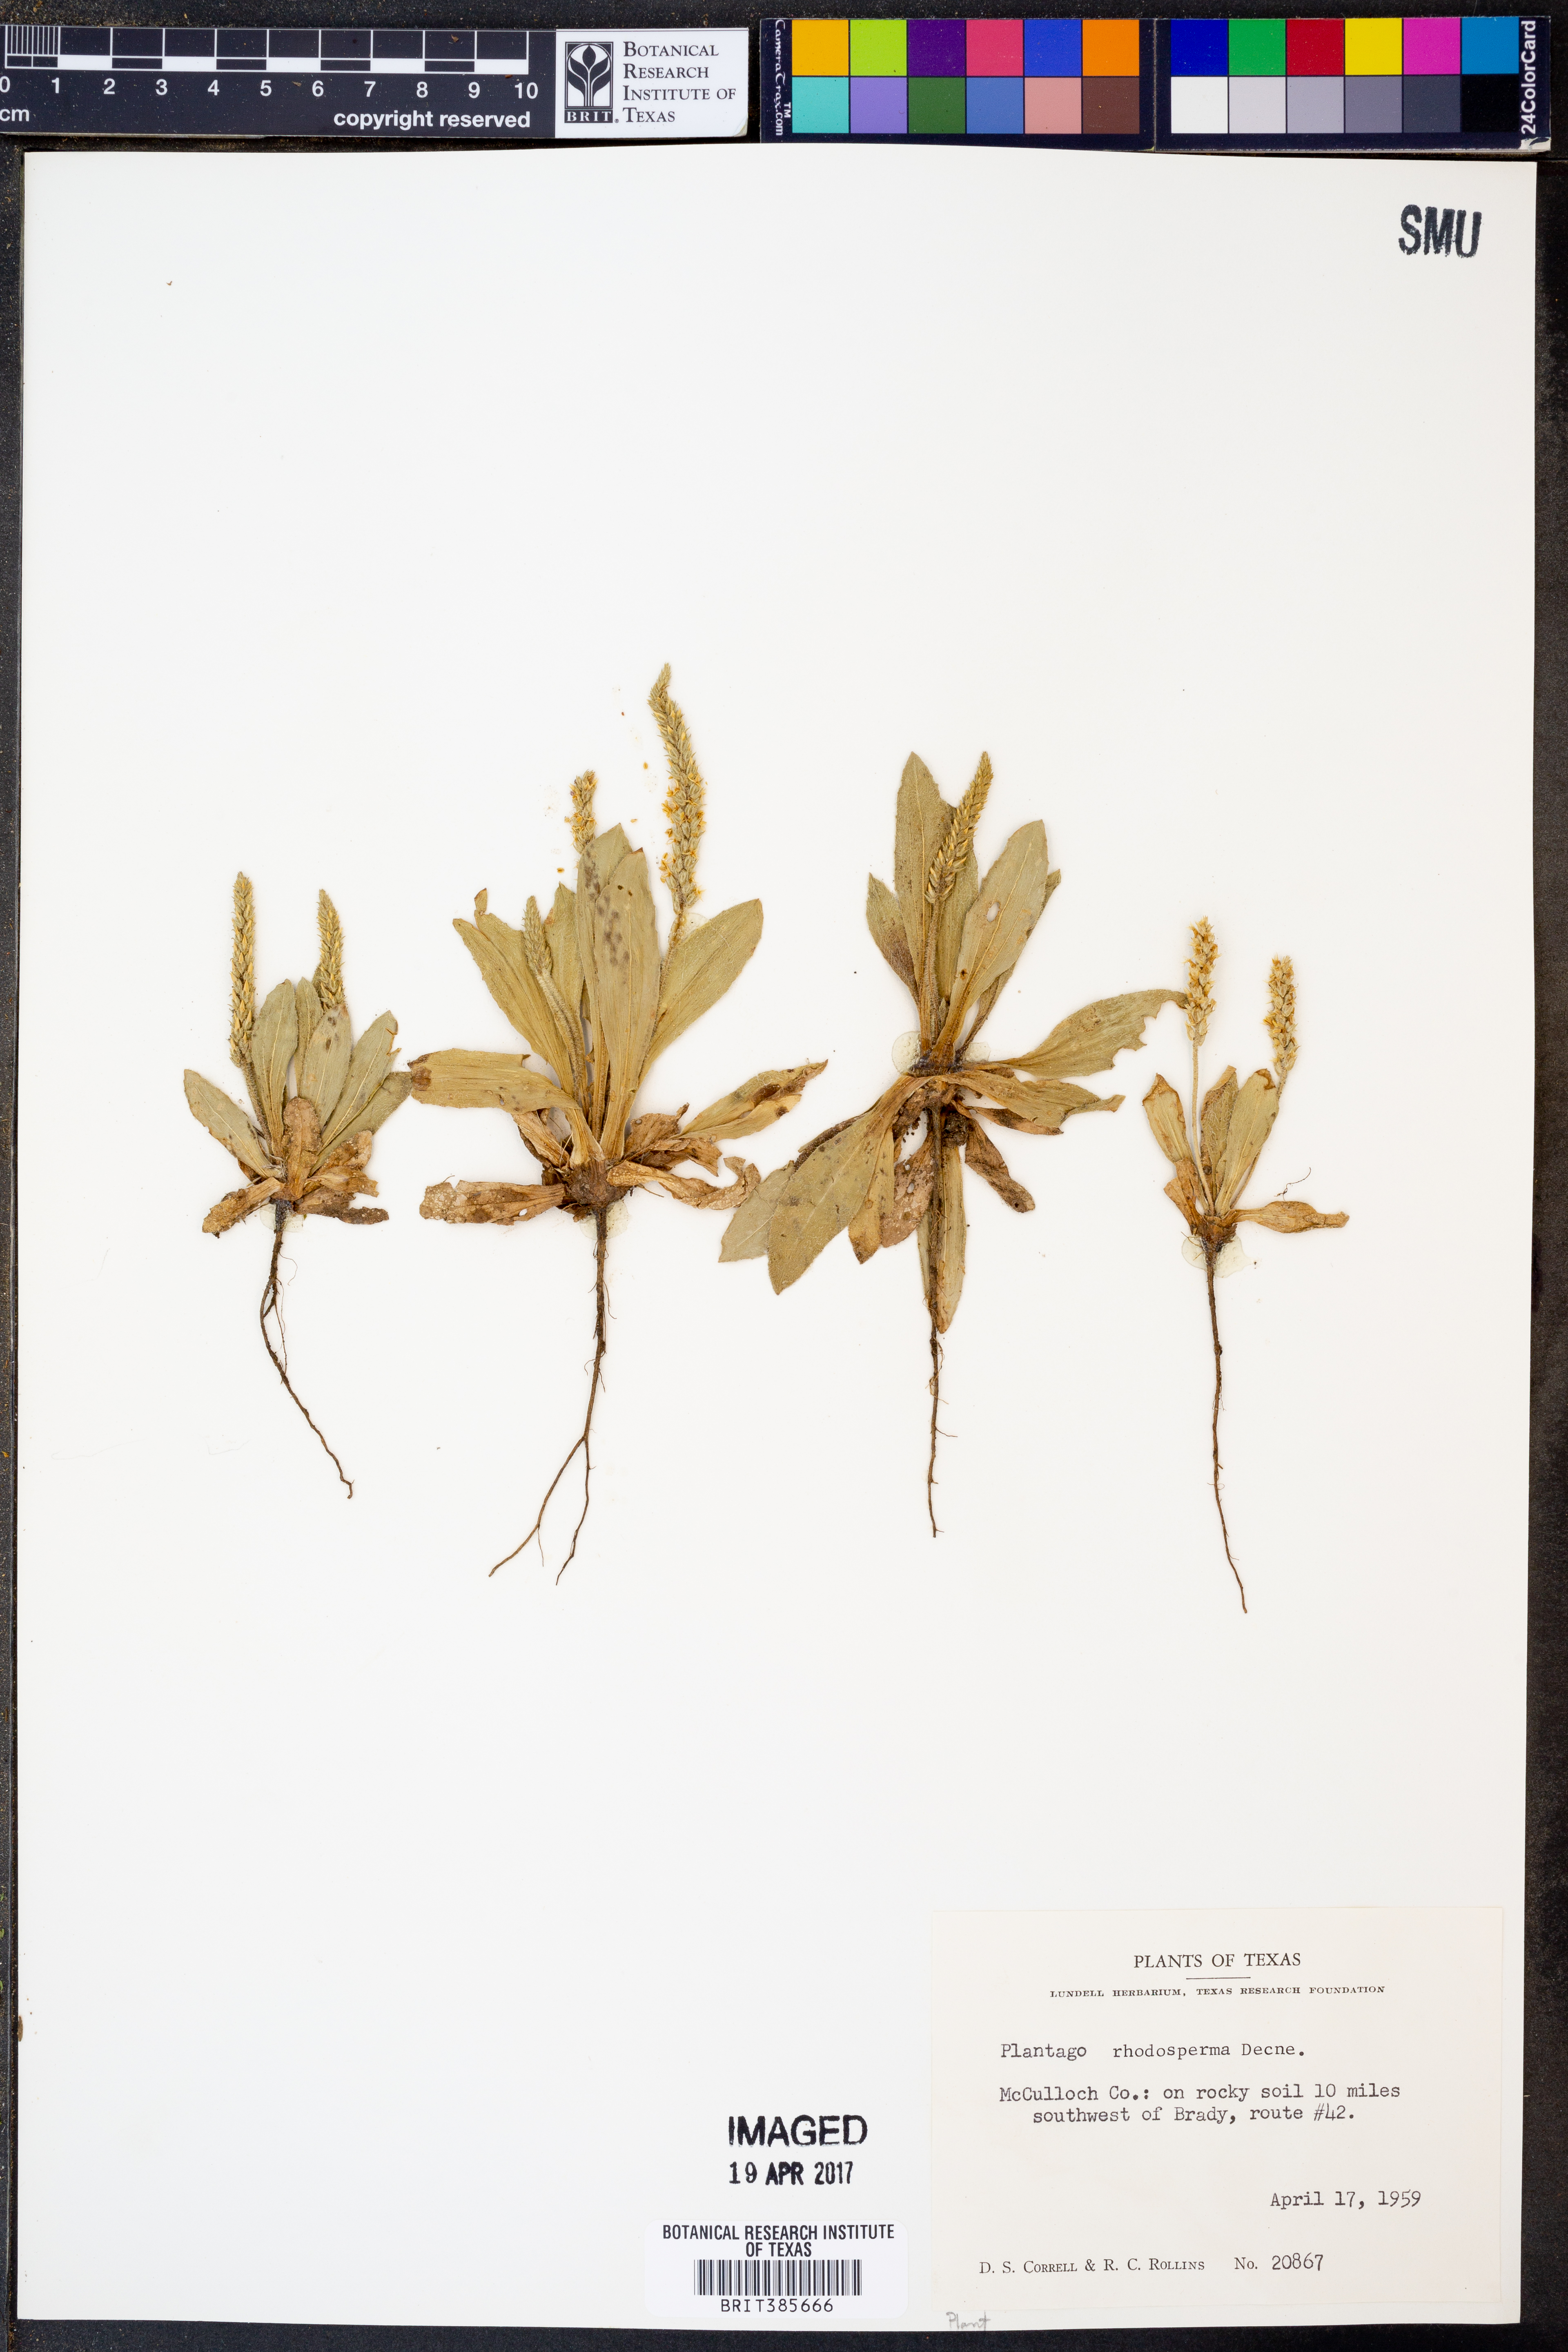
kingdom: Plantae
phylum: Tracheophyta
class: Magnoliopsida
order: Lamiales
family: Plantaginaceae
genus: Plantago
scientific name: Plantago rhodosperma
